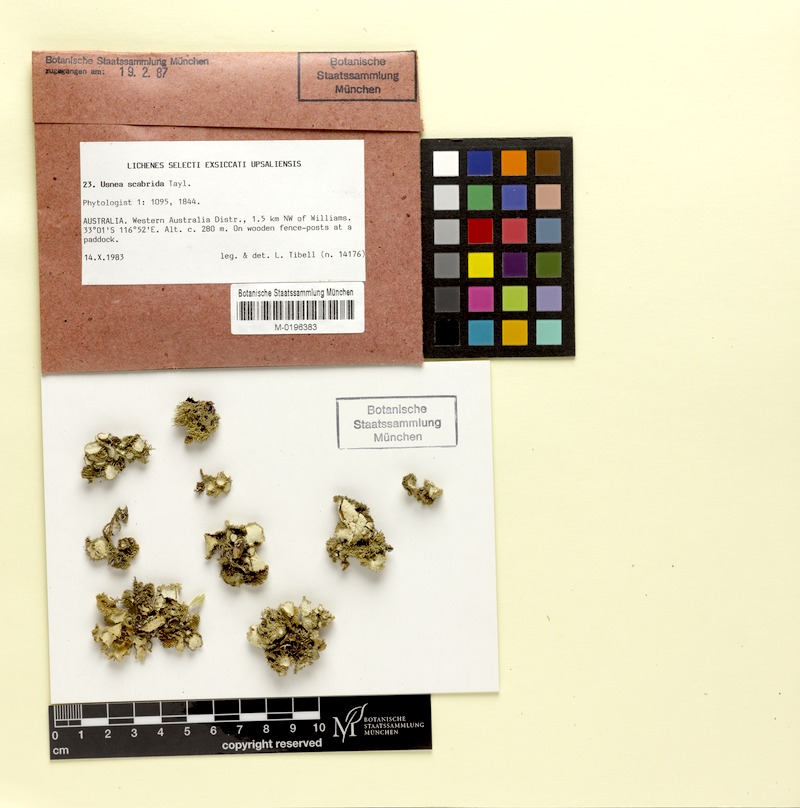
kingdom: Fungi
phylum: Ascomycota
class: Lecanoromycetes
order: Lecanorales
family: Parmeliaceae
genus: Usnea
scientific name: Usnea scabrida
